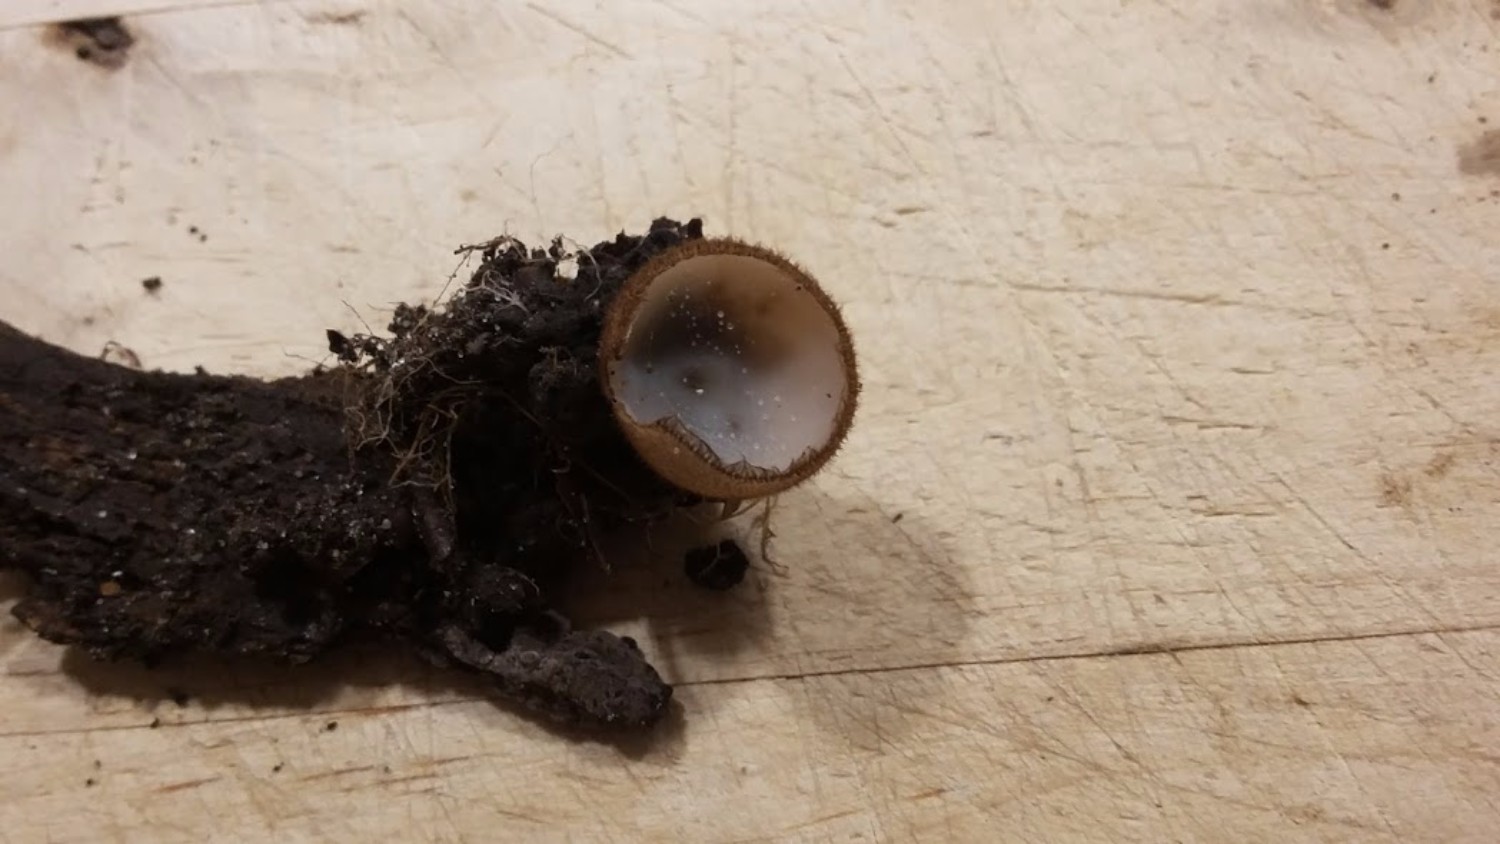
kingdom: Fungi
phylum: Ascomycota
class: Pezizomycetes
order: Pezizales
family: Pyronemataceae
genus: Humaria
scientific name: Humaria hemisphaerica
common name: halvkugleformet børstebæger
